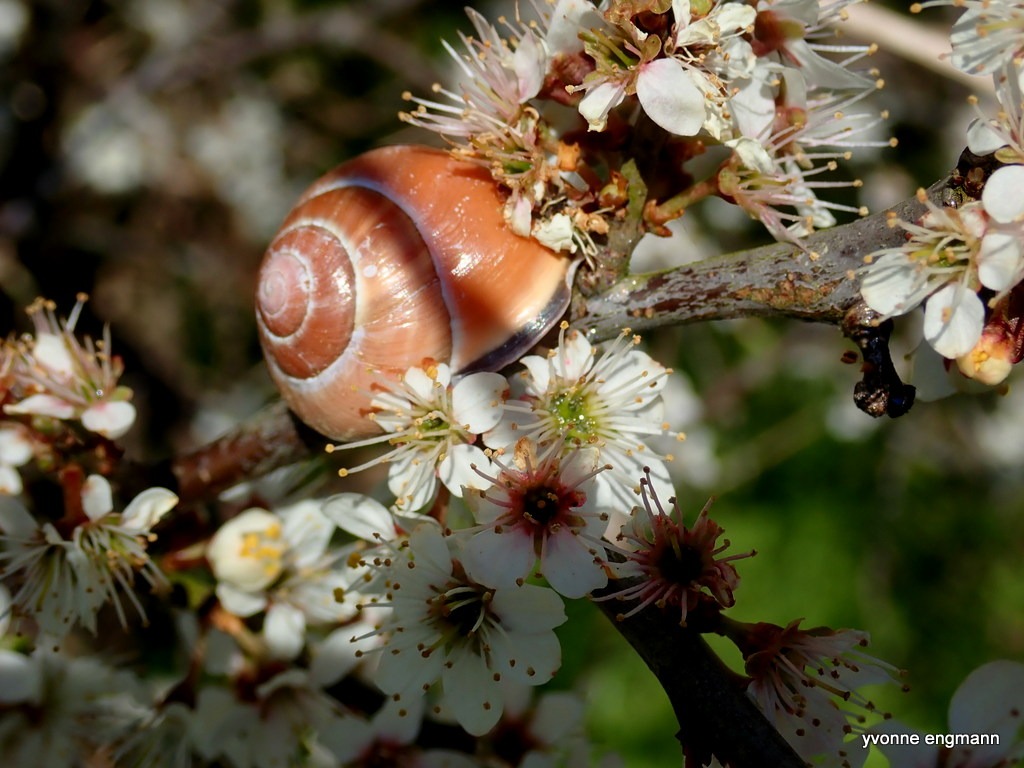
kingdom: Animalia
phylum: Mollusca
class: Gastropoda
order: Stylommatophora
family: Helicidae
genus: Cepaea
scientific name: Cepaea nemoralis
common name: Lundsnegl
